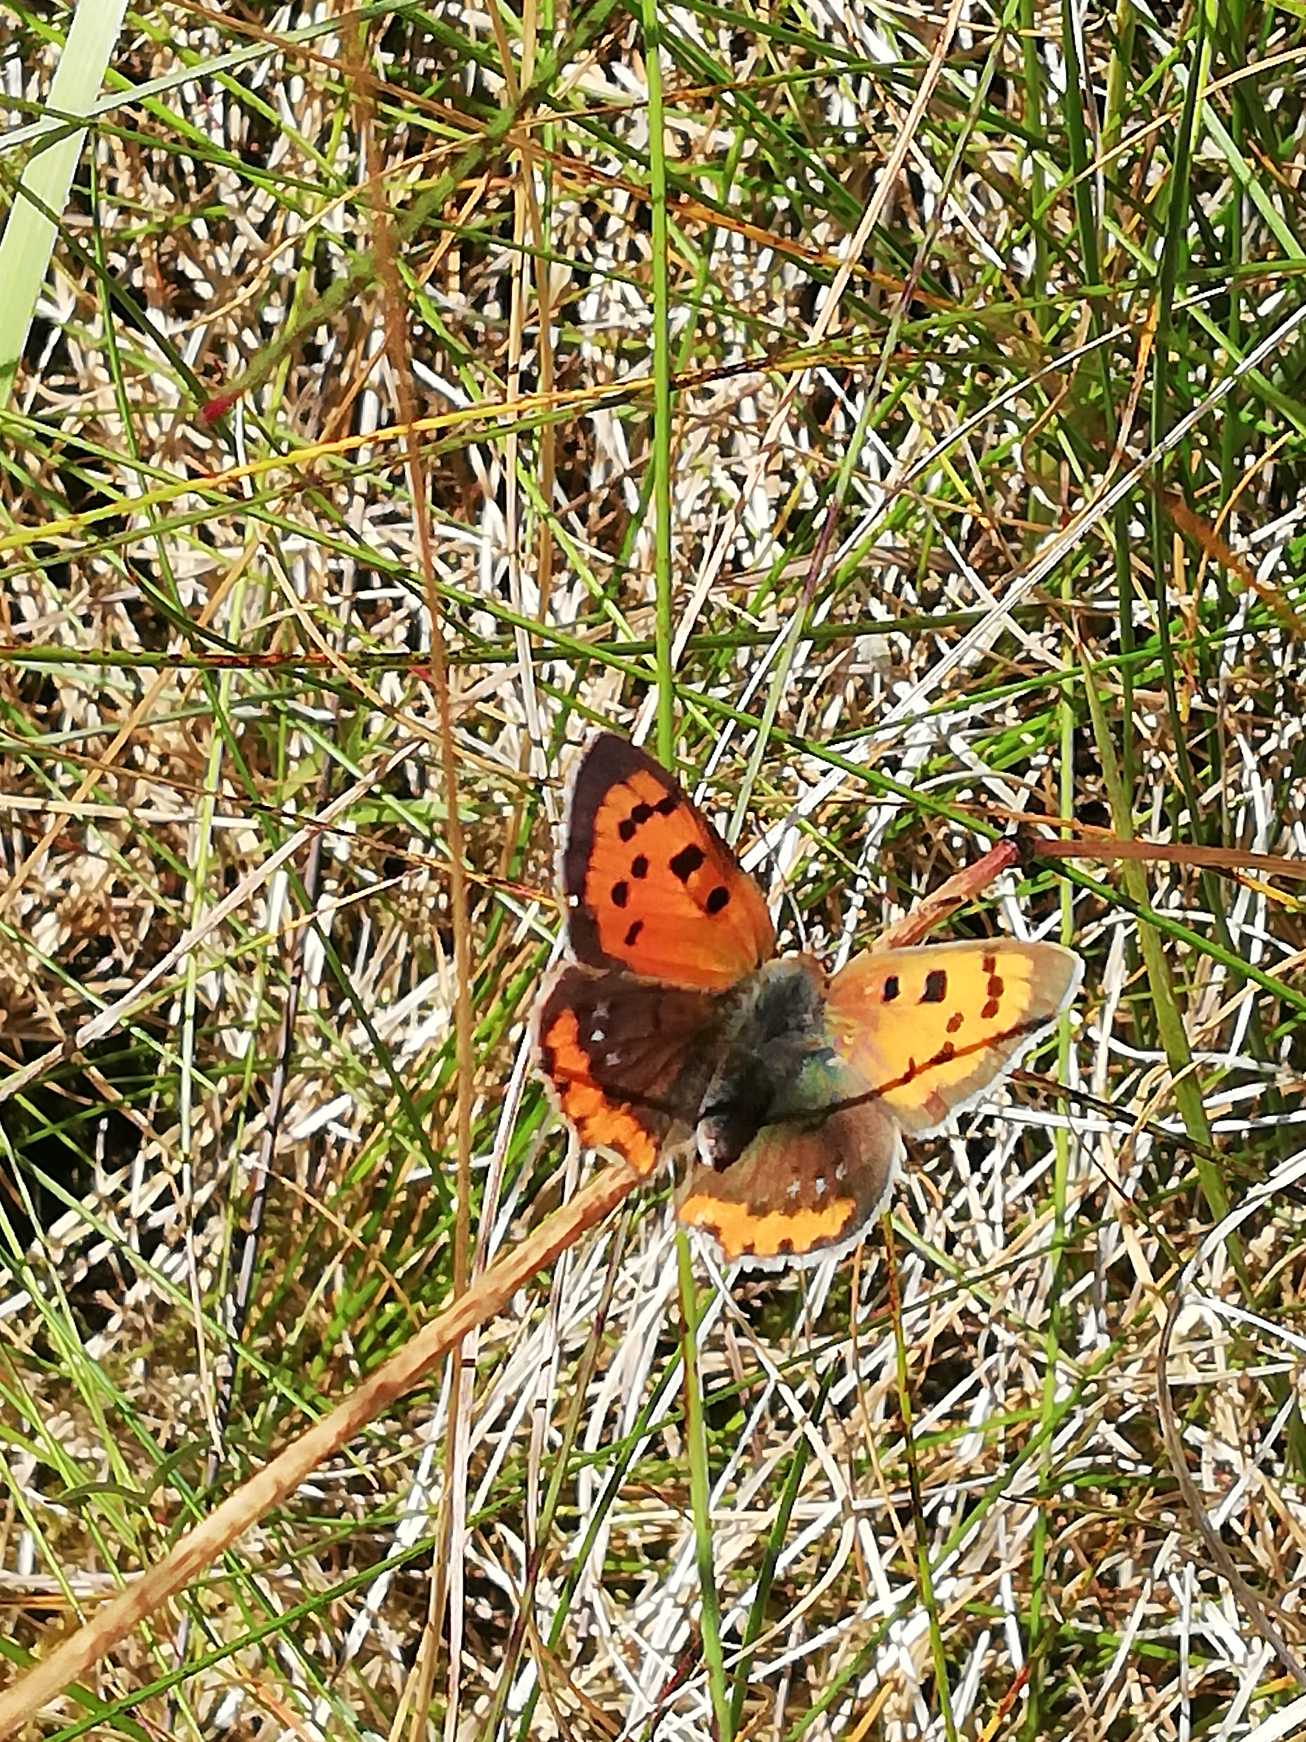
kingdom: Animalia
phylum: Arthropoda
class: Insecta
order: Lepidoptera
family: Lycaenidae
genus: Lycaena
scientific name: Lycaena phlaeas
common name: Lille ildfugl
